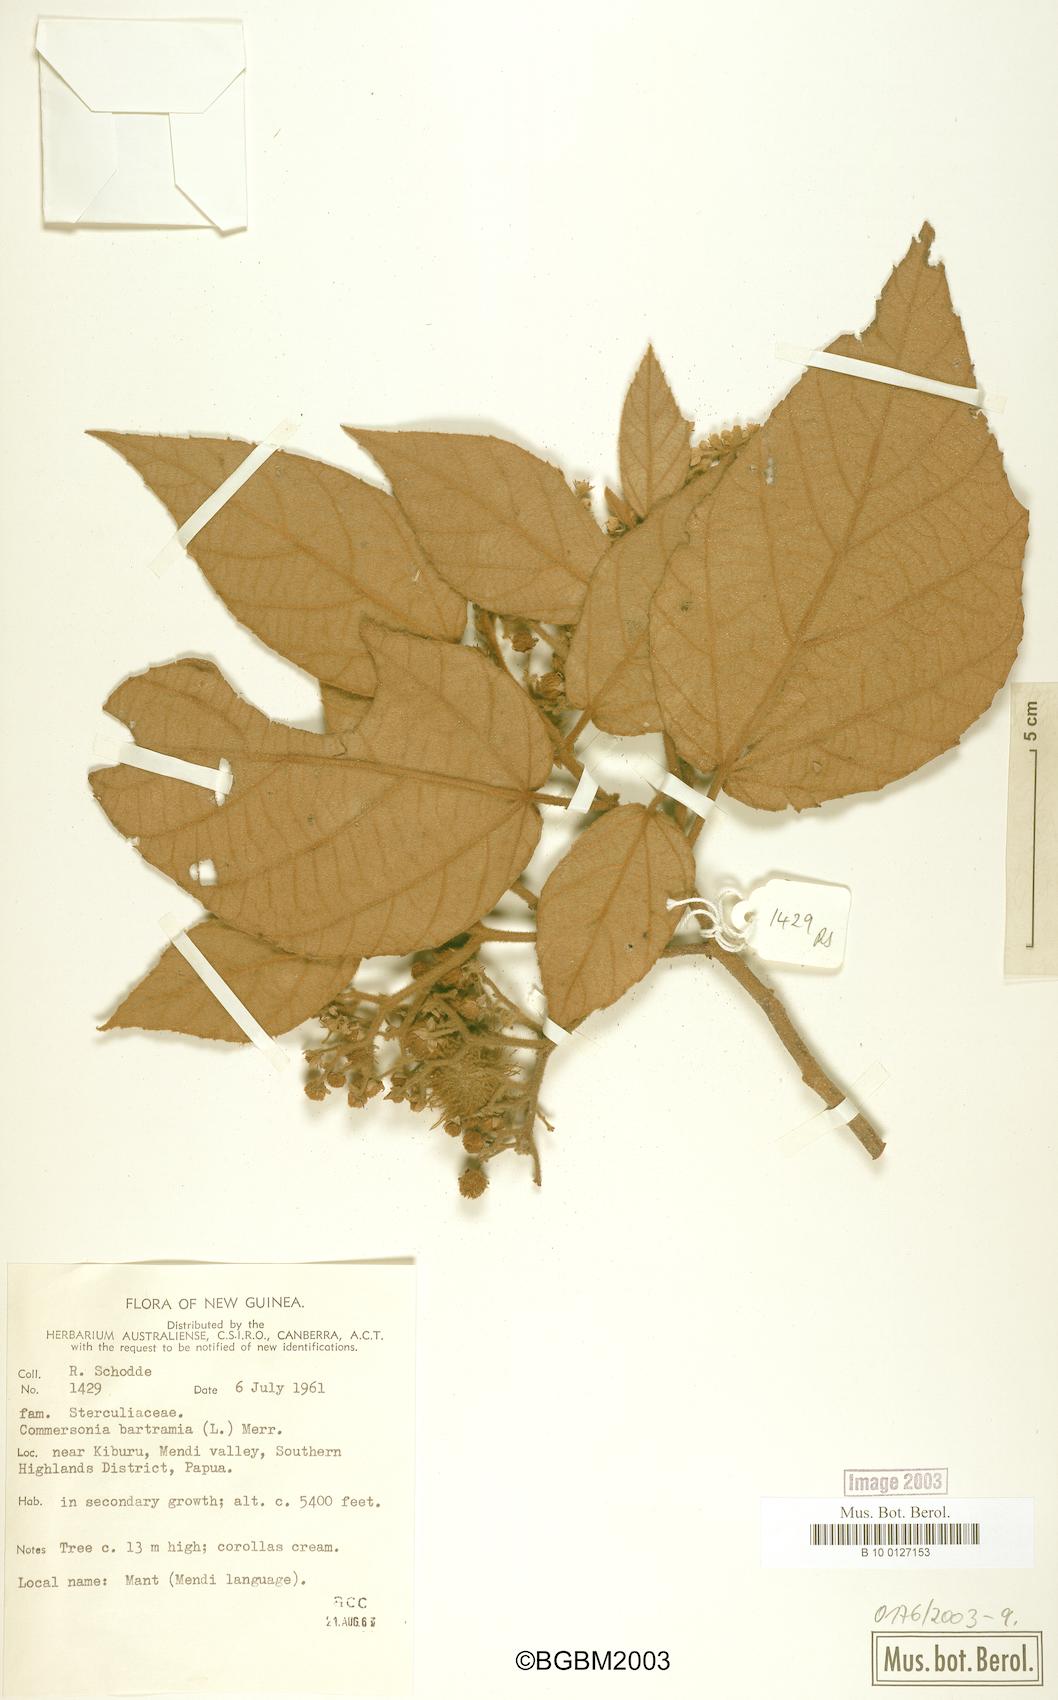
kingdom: Plantae
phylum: Tracheophyta
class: Magnoliopsida
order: Malvales
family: Malvaceae
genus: Commersonia
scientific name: Commersonia bartramia
